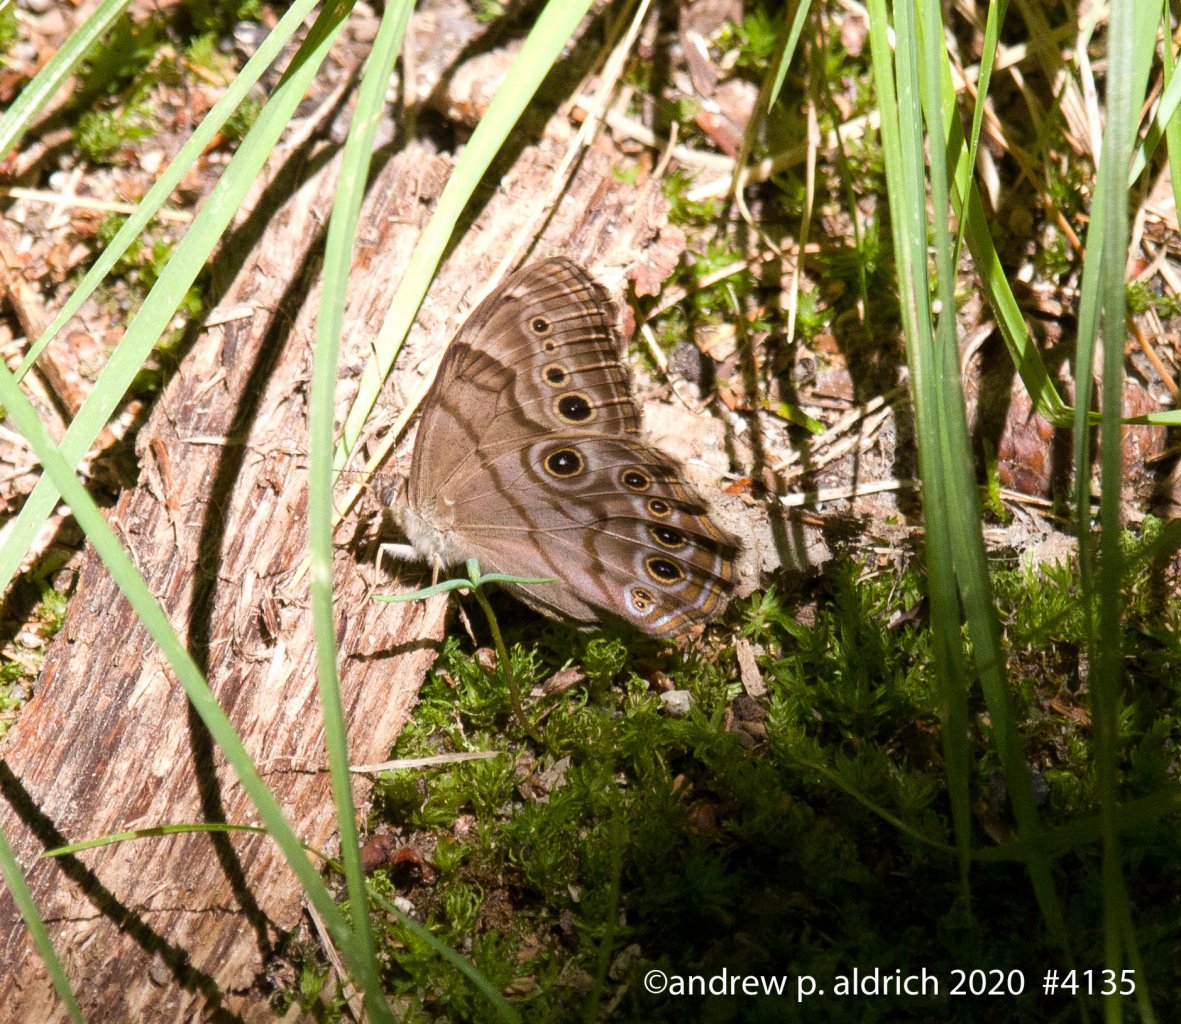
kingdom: Animalia
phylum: Arthropoda
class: Insecta
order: Lepidoptera
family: Nymphalidae
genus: Lethe
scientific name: Lethe anthedon
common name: Northern Pearly-Eye
